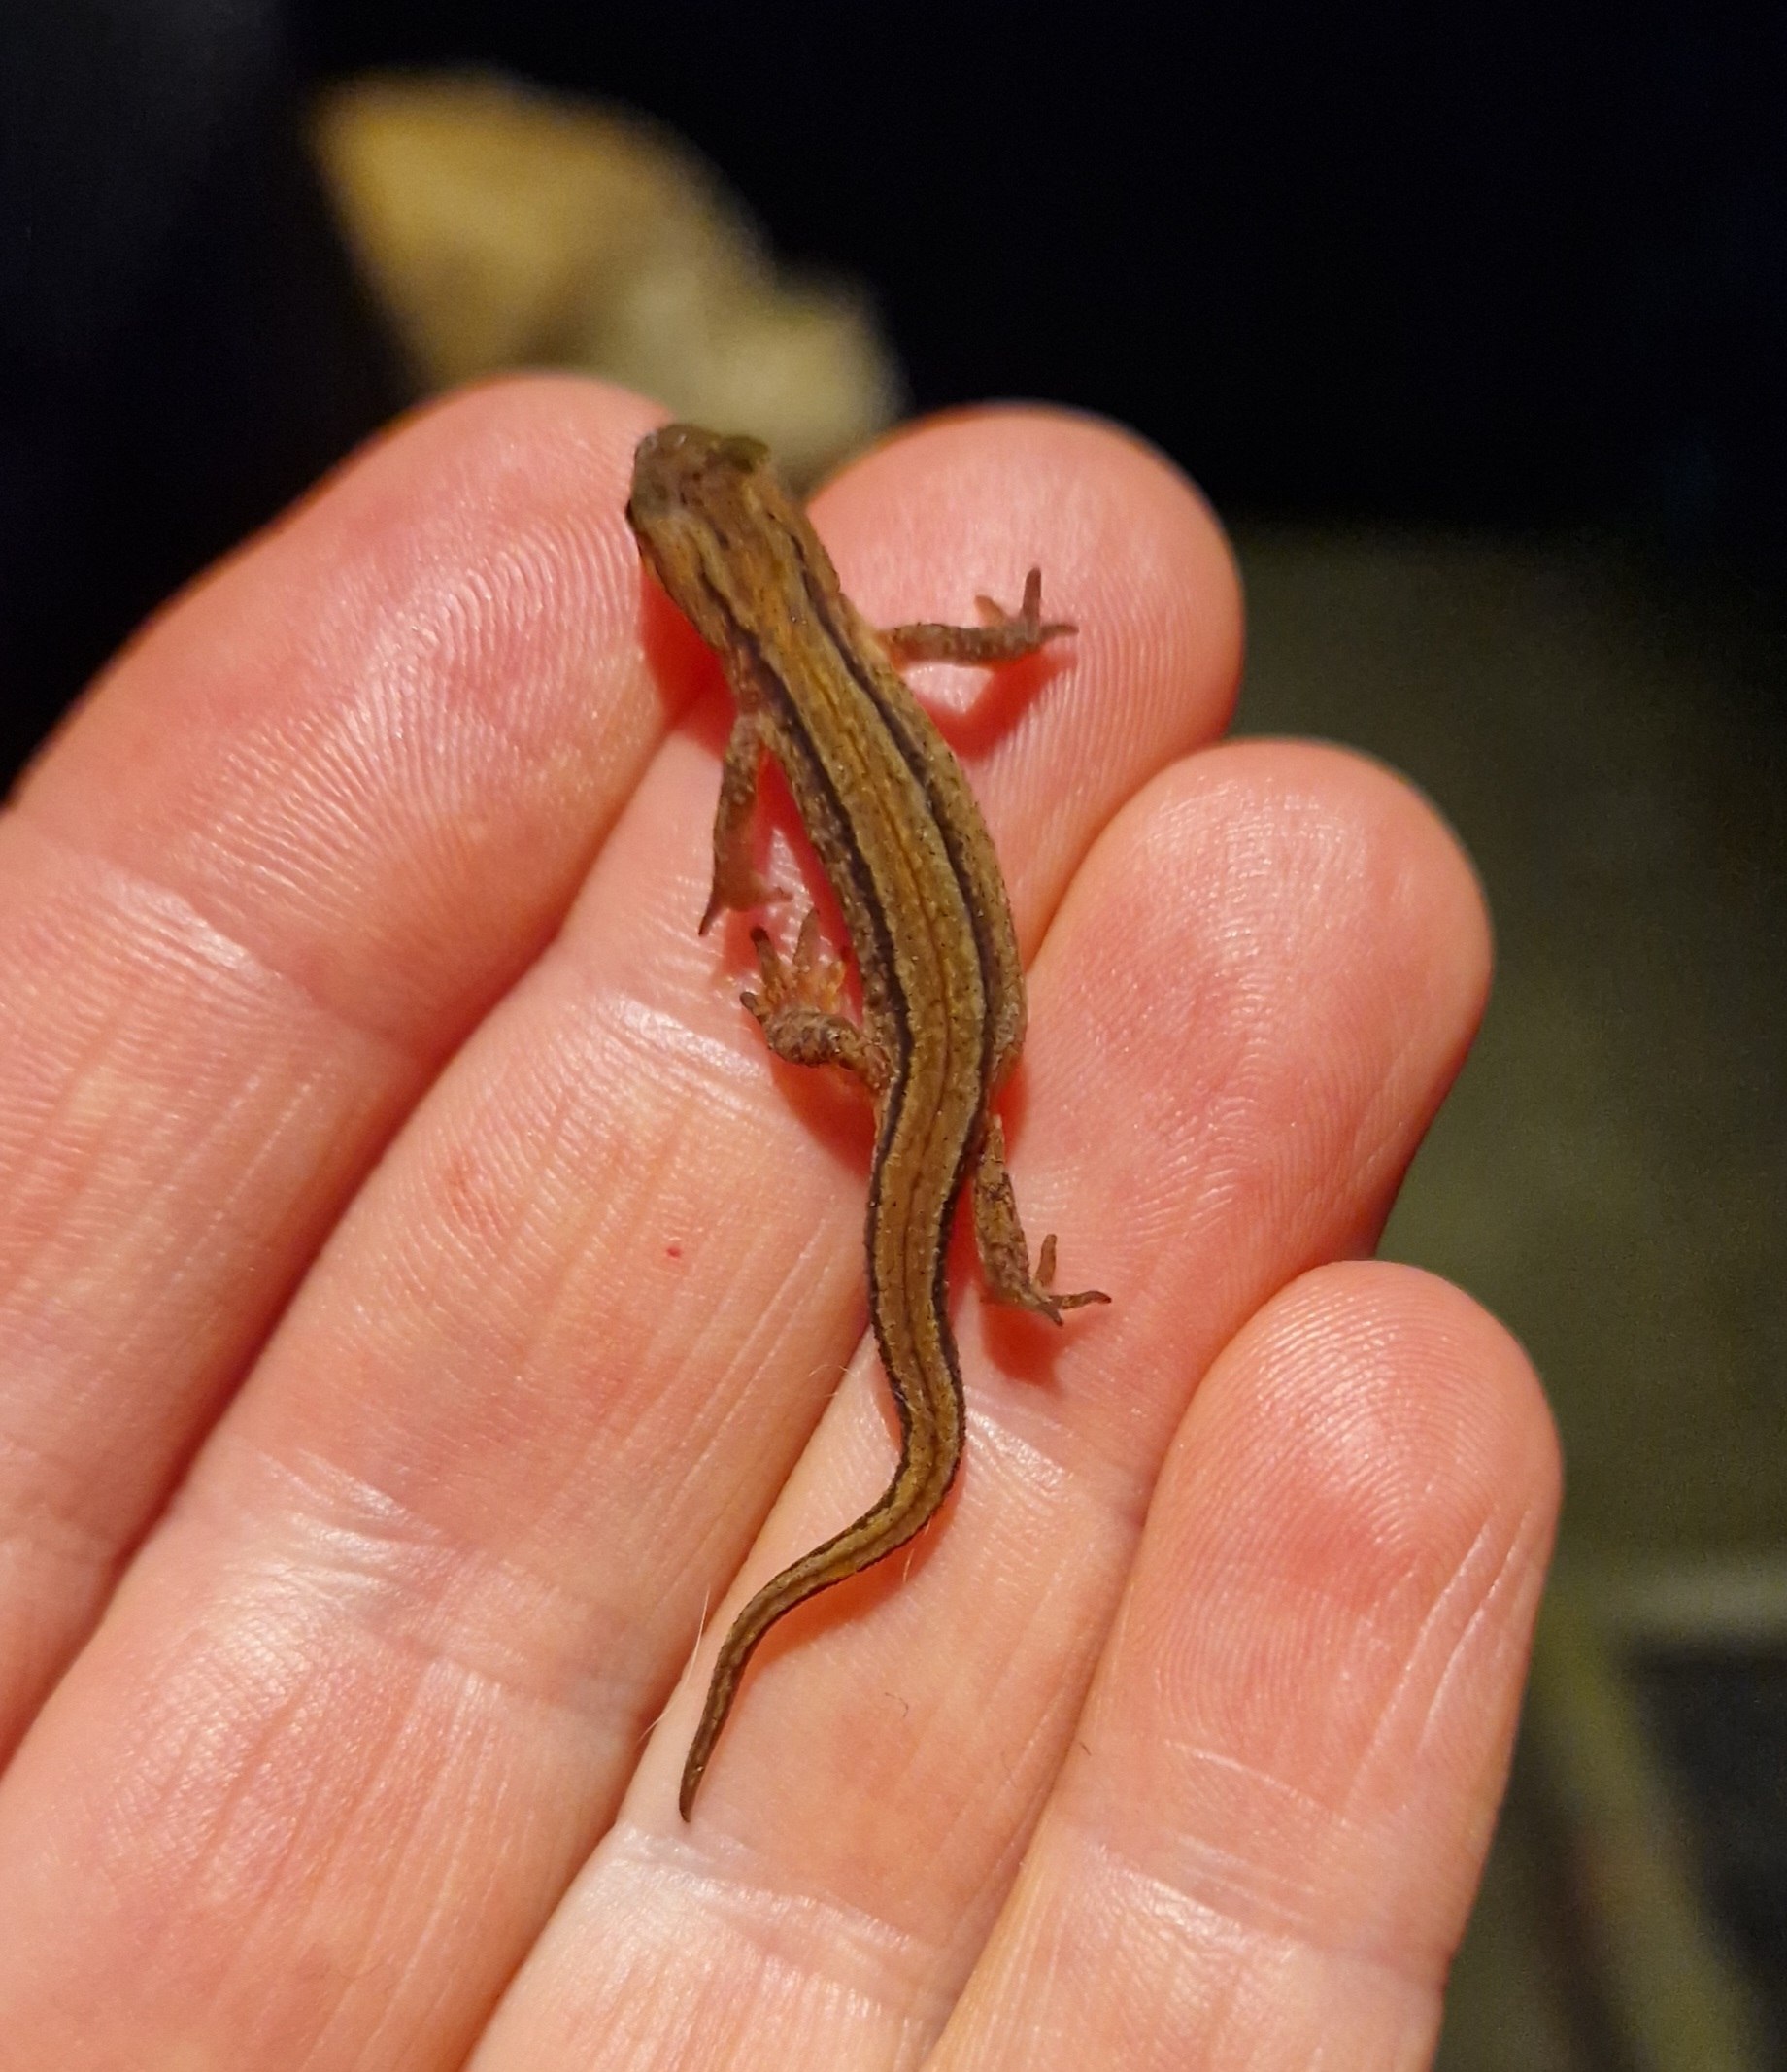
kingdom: Animalia
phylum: Chordata
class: Amphibia
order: Caudata
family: Salamandridae
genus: Lissotriton
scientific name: Lissotriton vulgaris
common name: Lille vandsalamander
